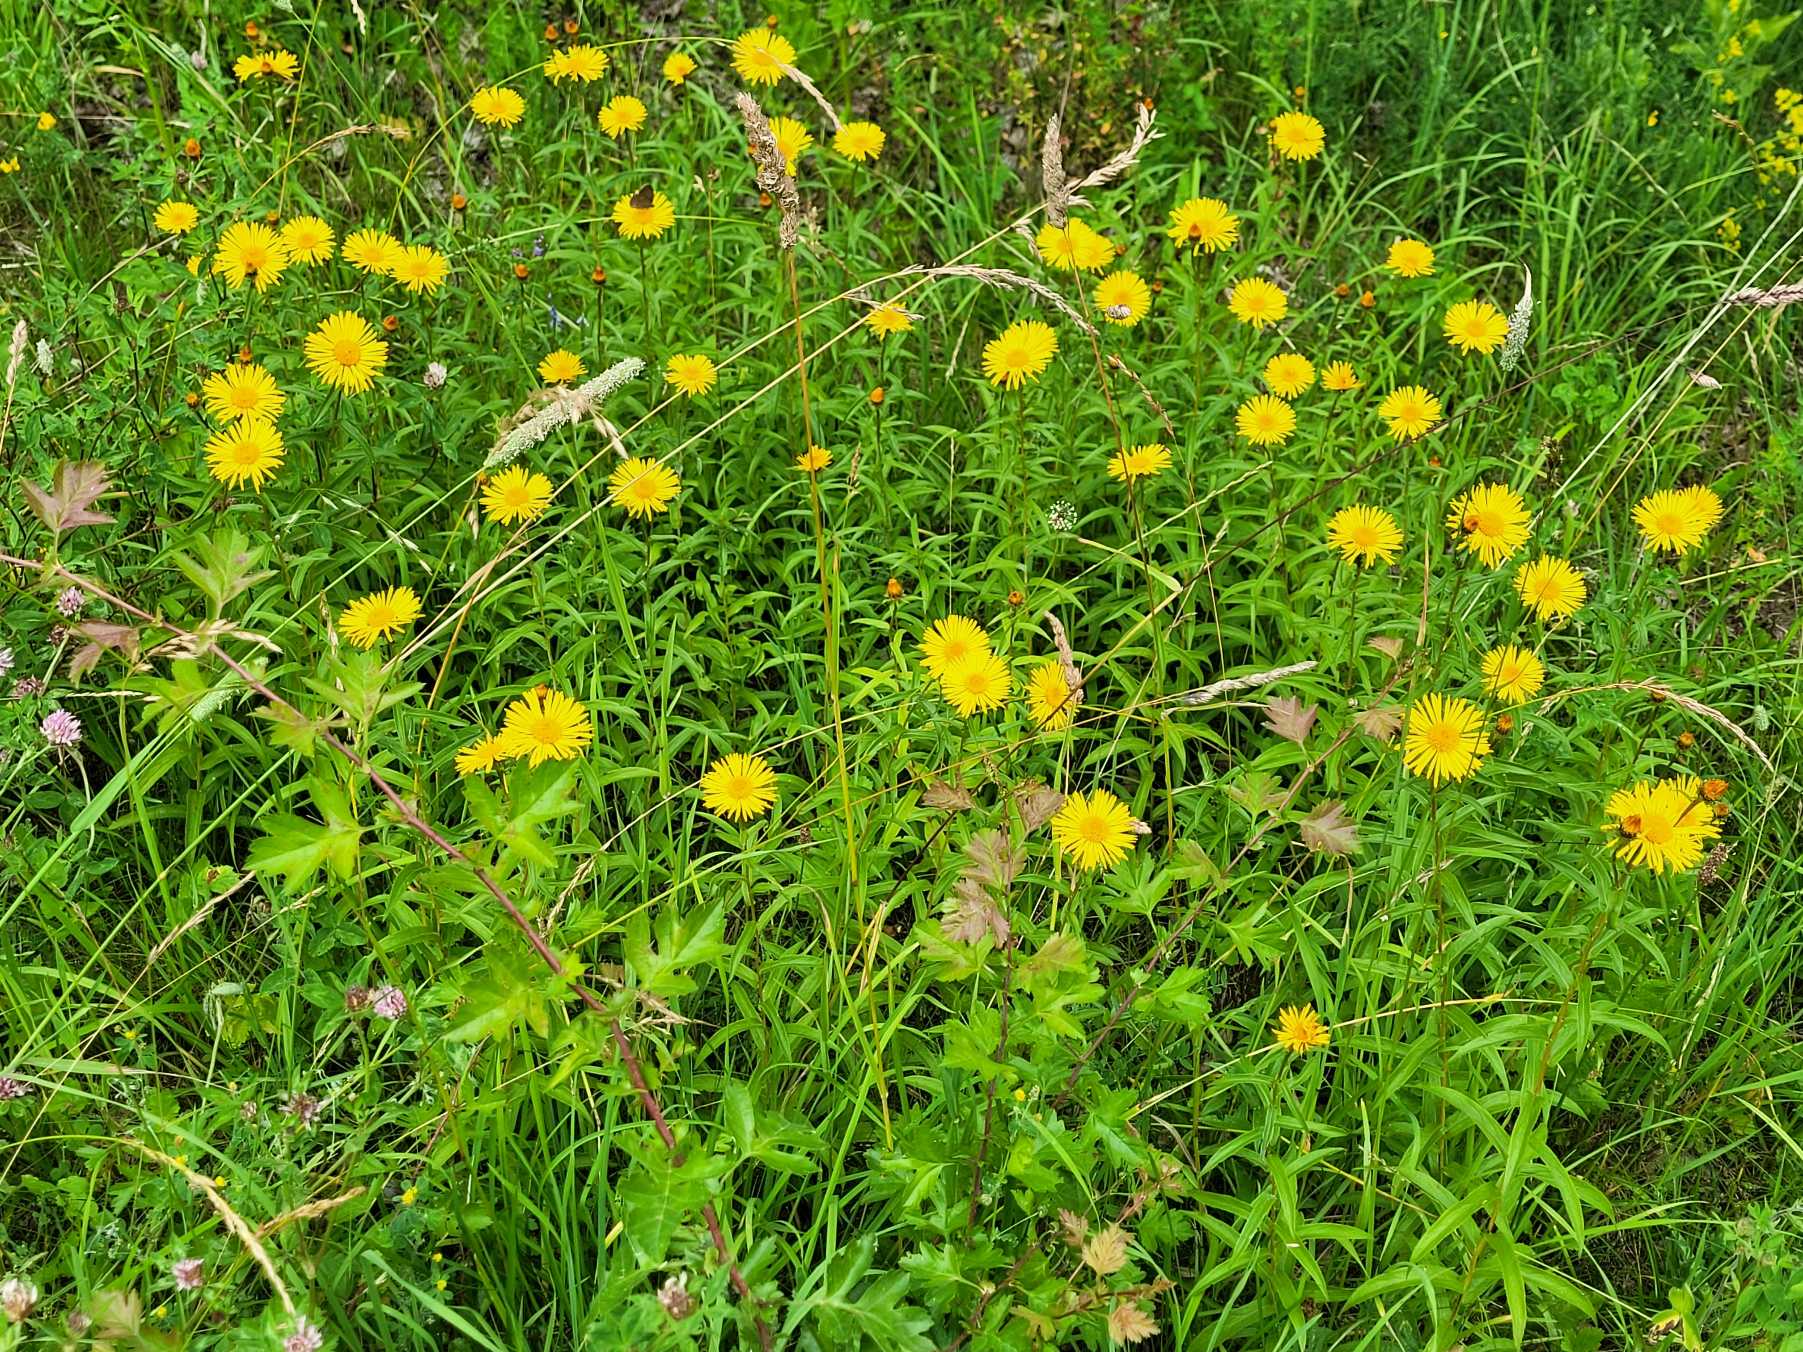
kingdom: Plantae
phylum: Tracheophyta
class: Magnoliopsida
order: Asterales
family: Asteraceae
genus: Pentanema
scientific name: Pentanema salicinum
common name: Pile-alant
